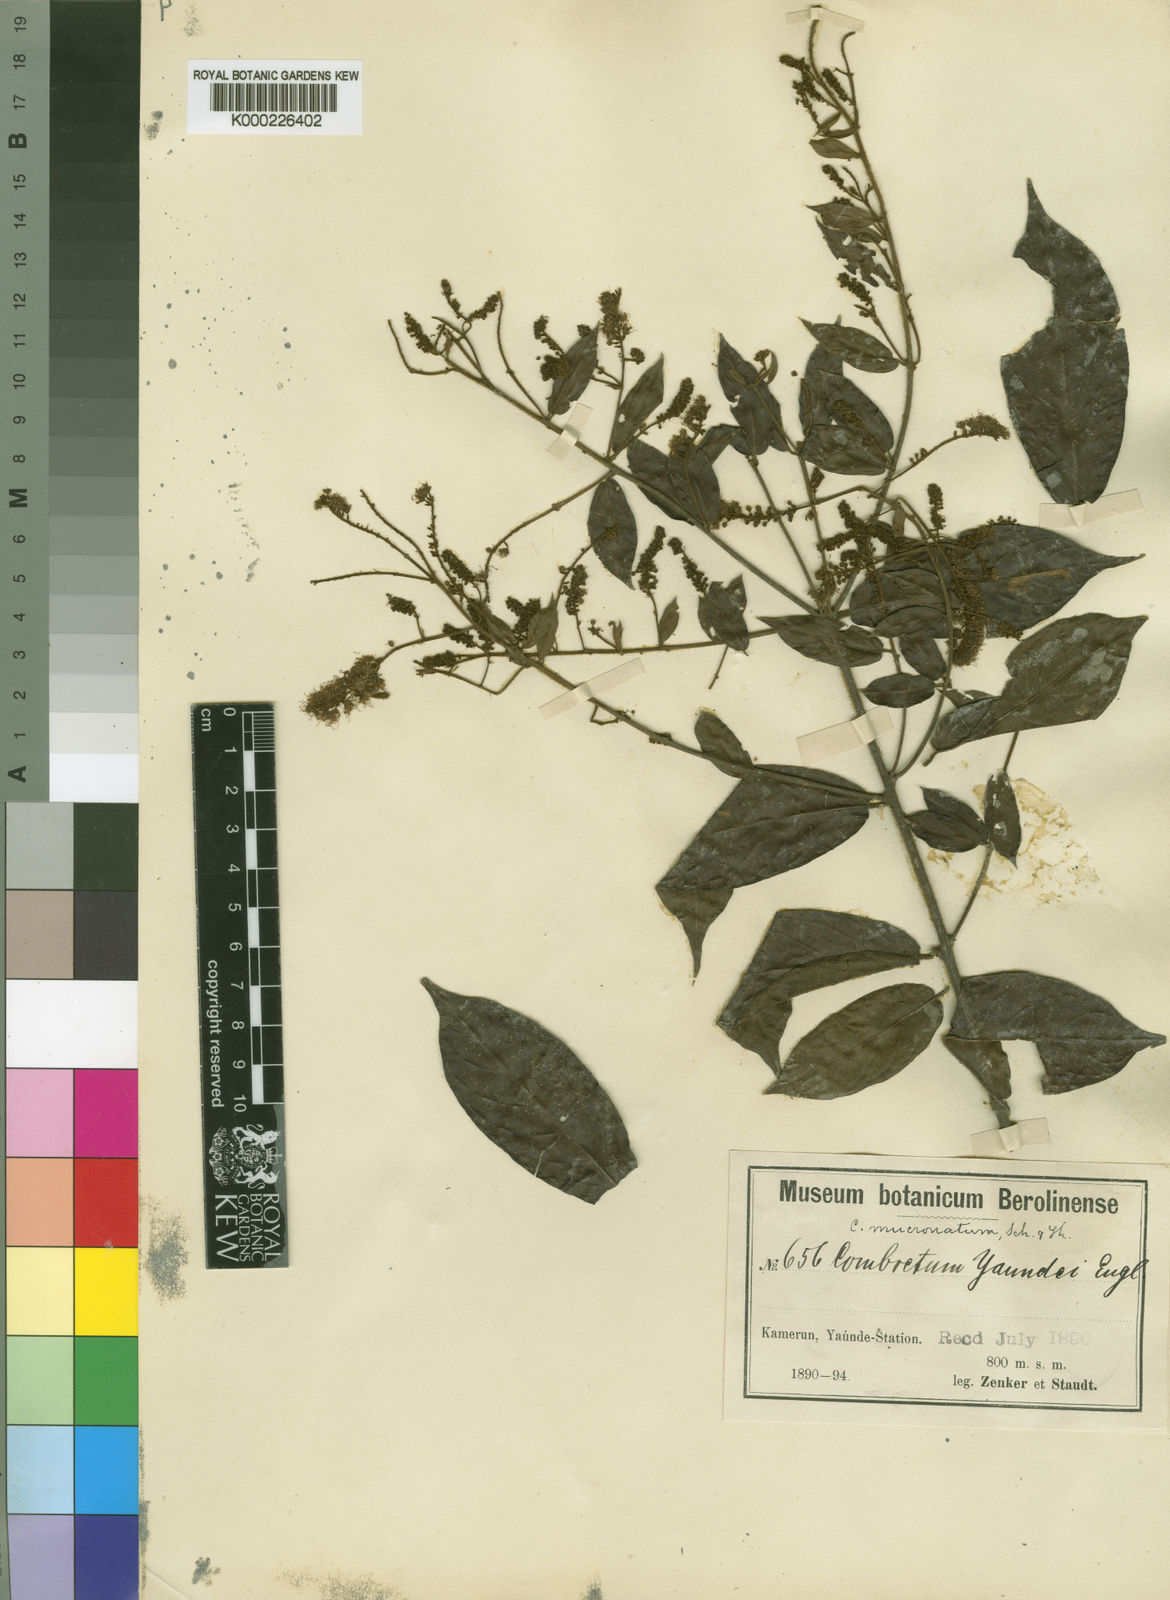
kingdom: Plantae
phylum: Tracheophyta
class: Magnoliopsida
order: Myrtales
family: Combretaceae
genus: Combretum
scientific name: Combretum mucronatum
